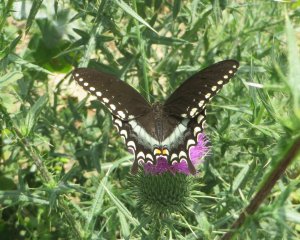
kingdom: Animalia
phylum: Arthropoda
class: Insecta
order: Lepidoptera
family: Papilionidae
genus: Pterourus
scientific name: Pterourus troilus
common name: Spicebush Swallowtail
